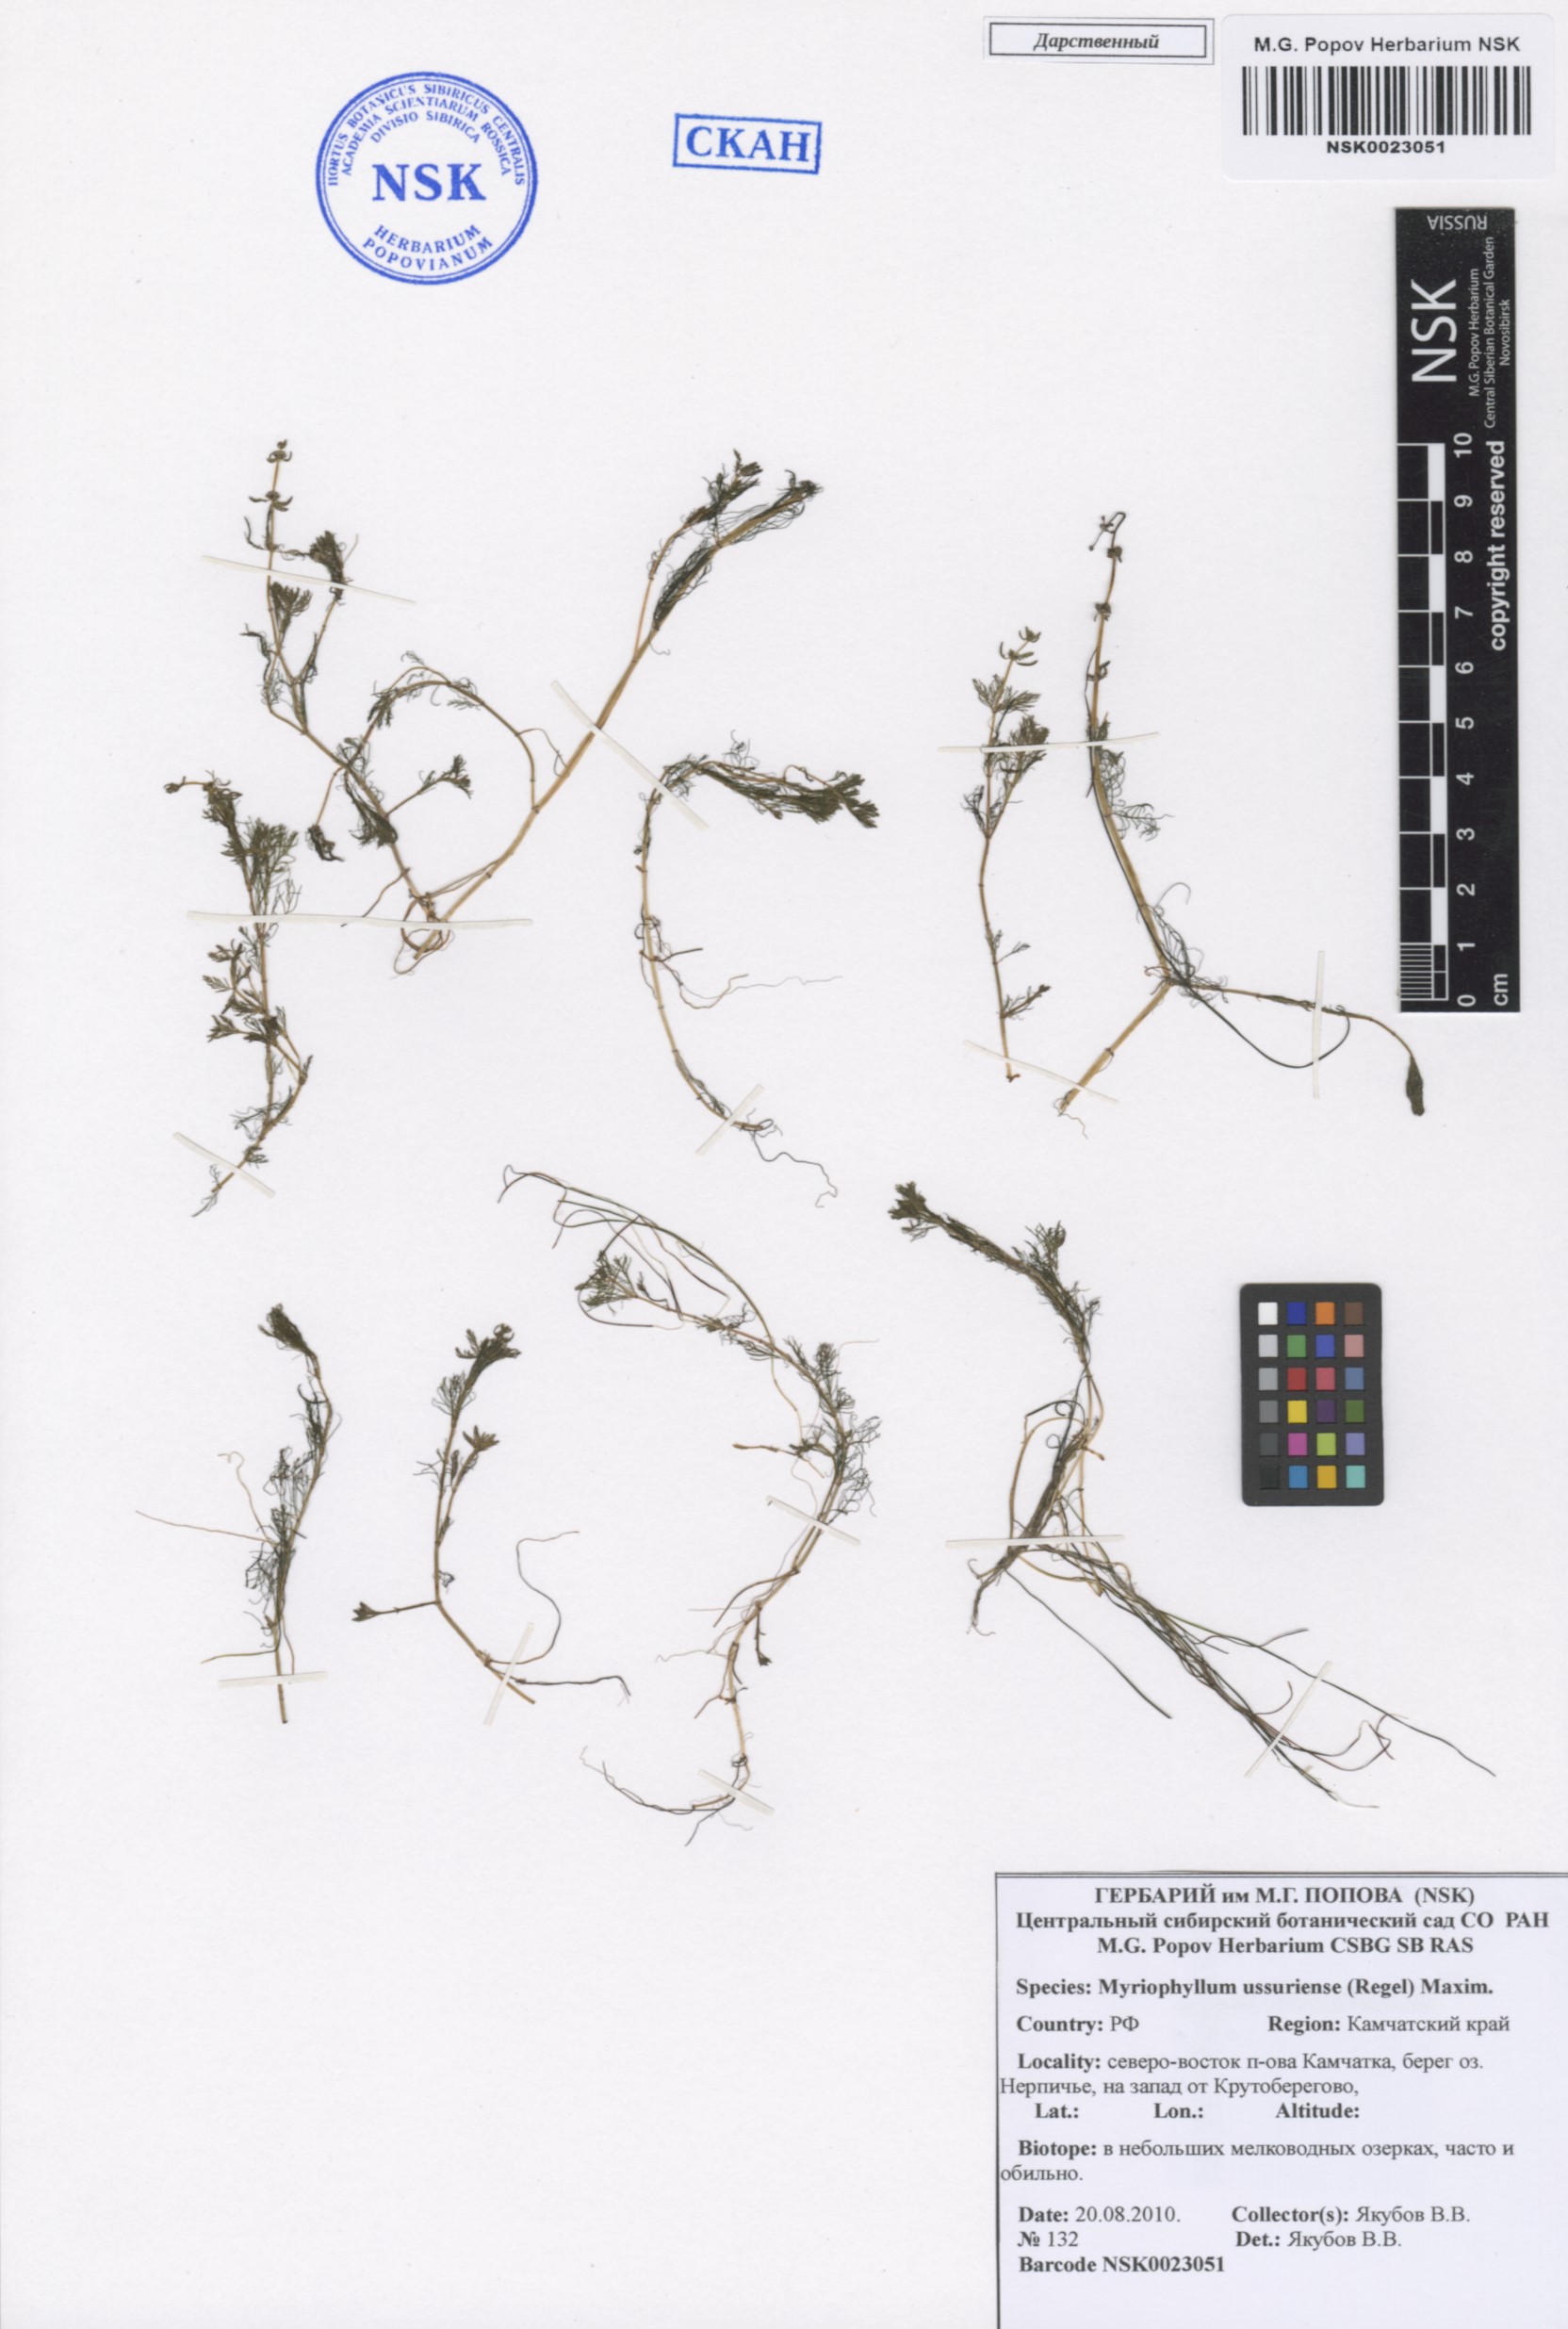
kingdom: Plantae
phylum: Tracheophyta
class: Magnoliopsida
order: Saxifragales
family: Haloragaceae
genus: Myriophyllum
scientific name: Myriophyllum ussuriense
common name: Asian water-milfoil
